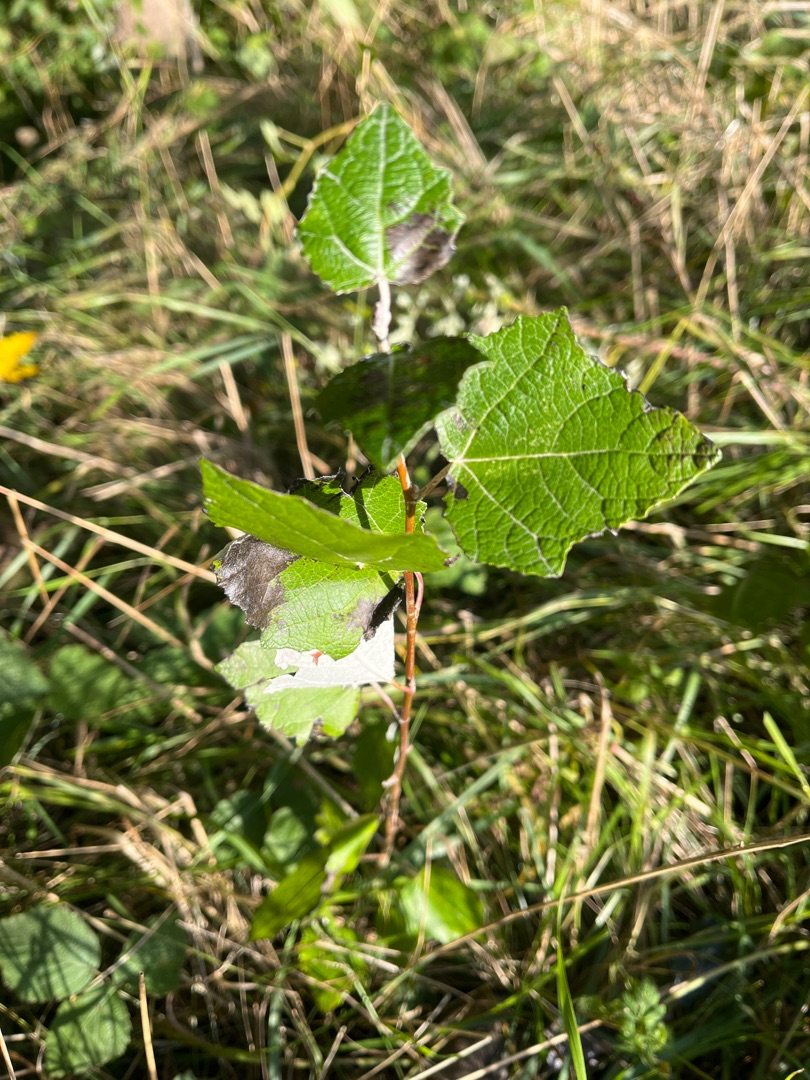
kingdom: Plantae
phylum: Tracheophyta
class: Magnoliopsida
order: Malpighiales
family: Salicaceae
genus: Populus
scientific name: Populus canescens
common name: Grå-poppel
